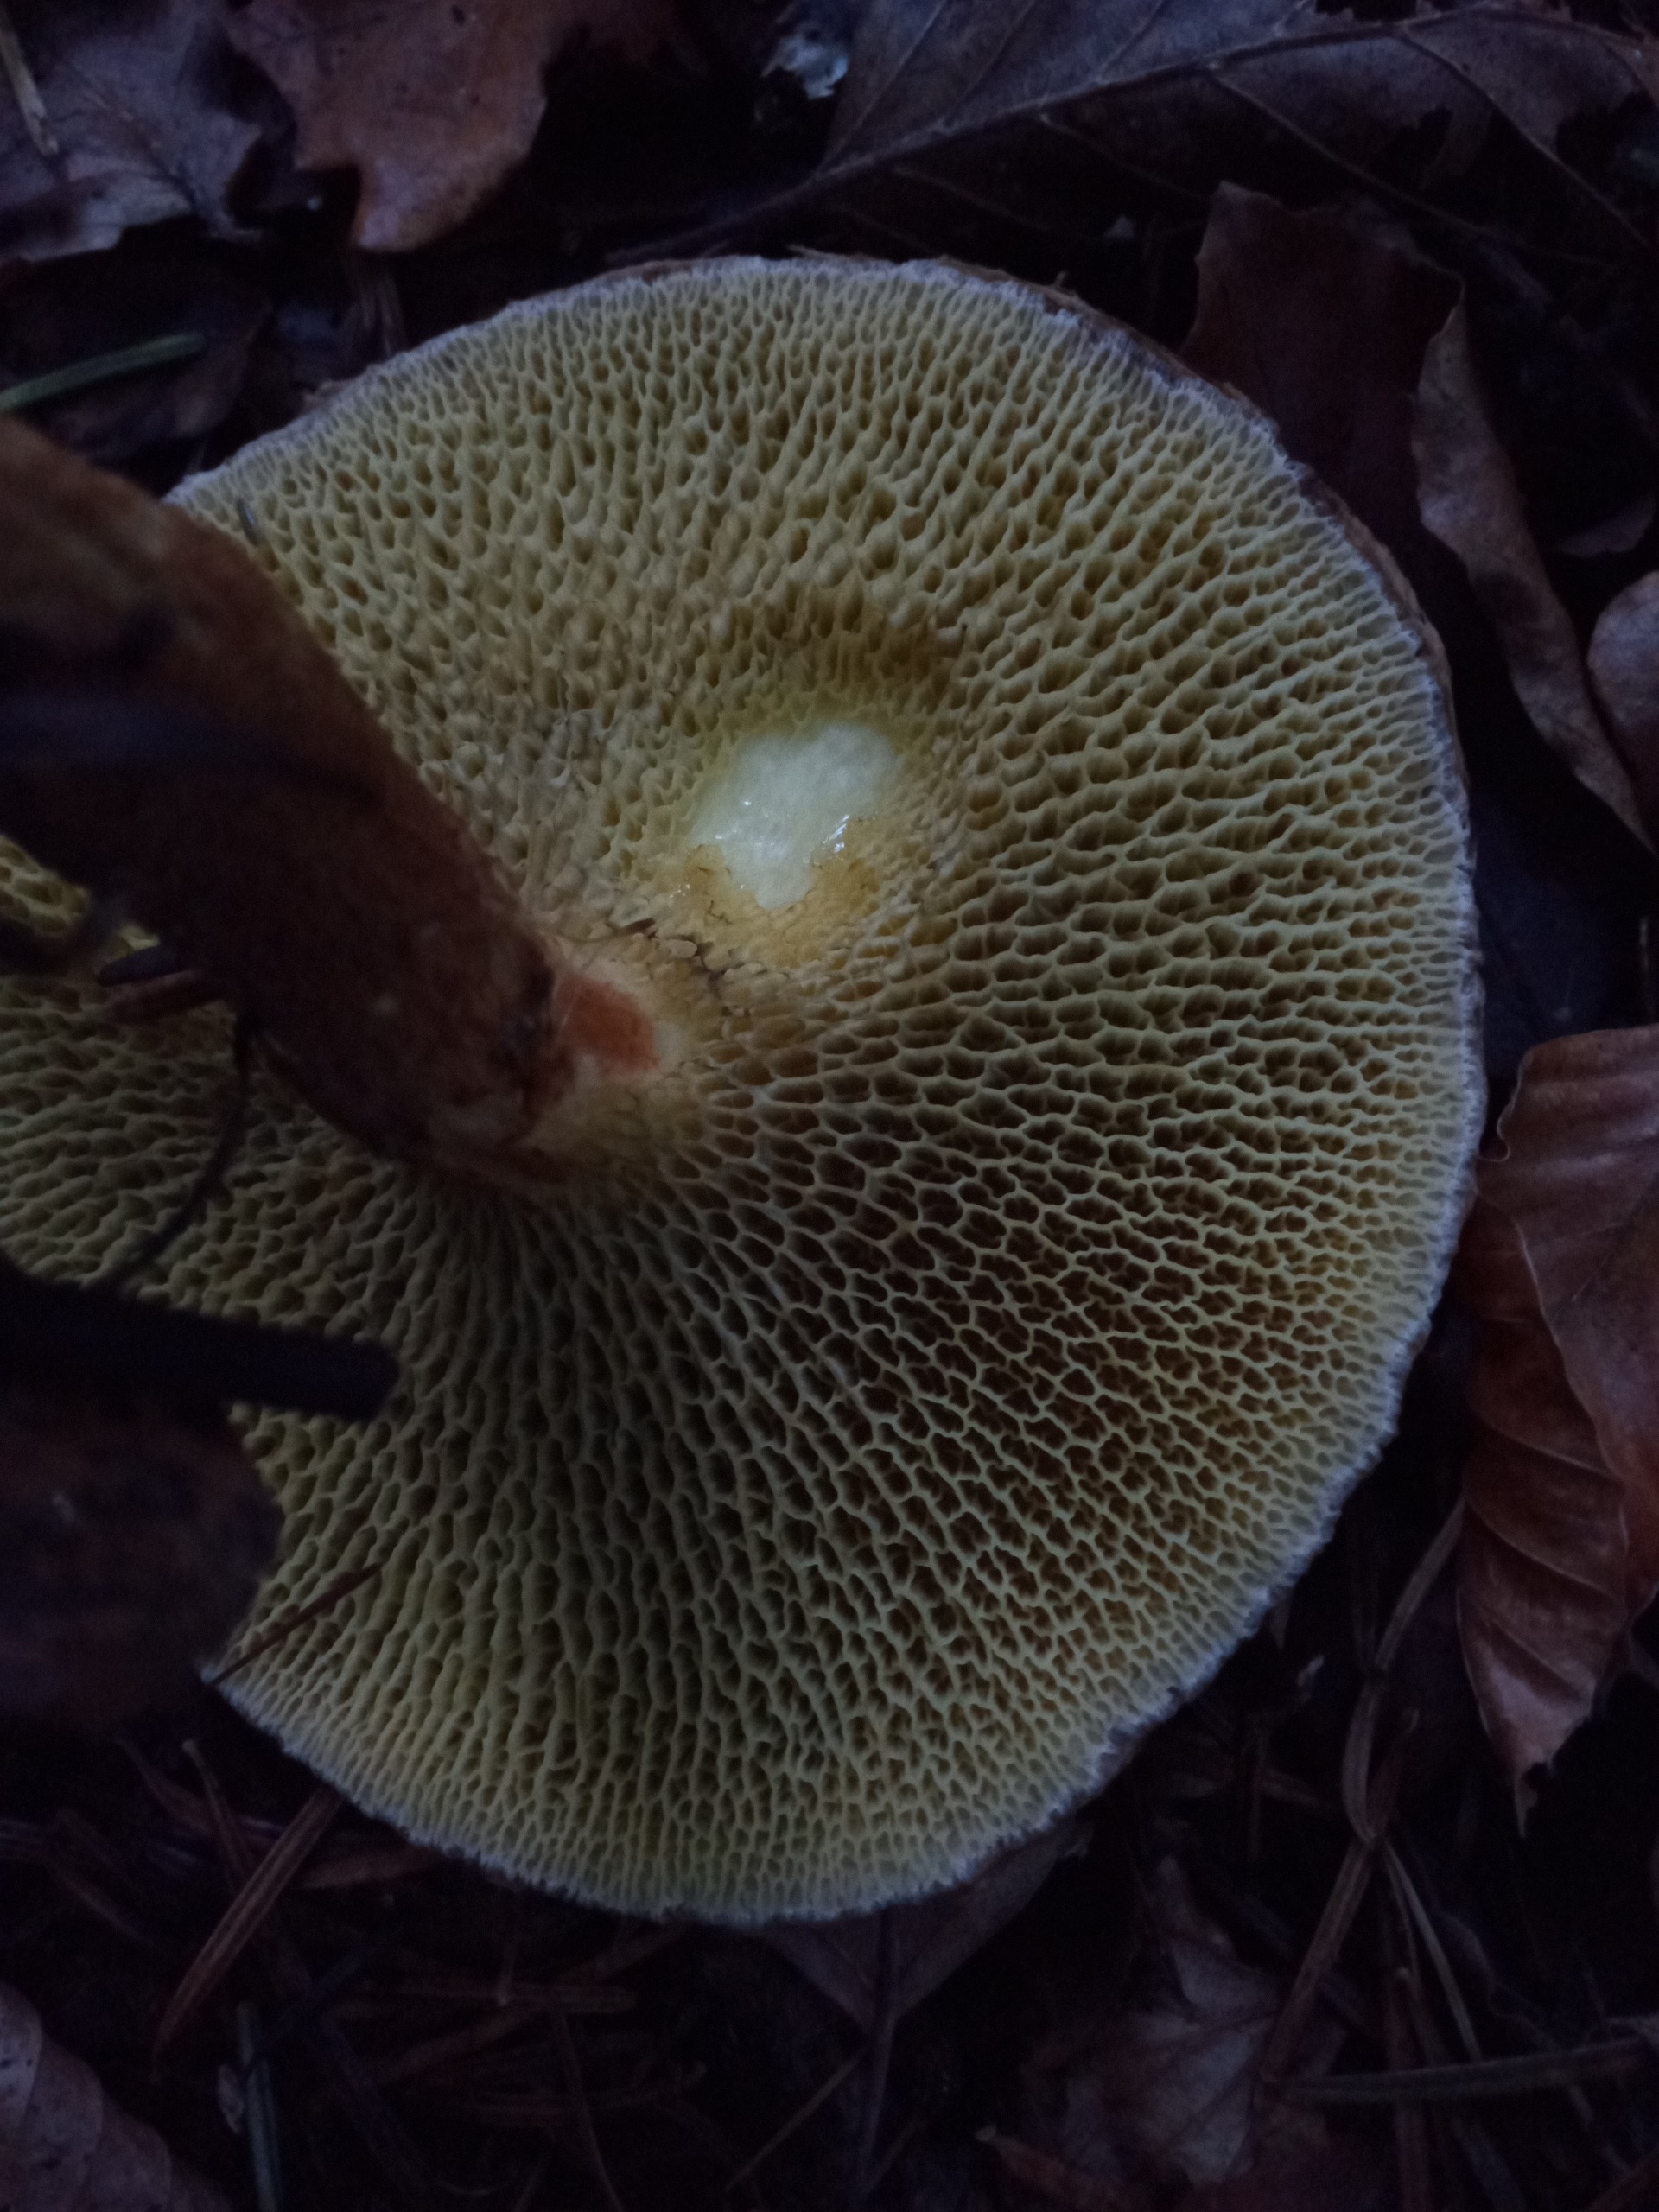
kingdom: Fungi
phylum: Basidiomycota
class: Agaricomycetes
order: Boletales
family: Suillaceae
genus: Suillus
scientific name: Suillus cavipes
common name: Hulstokket slimrørhat
